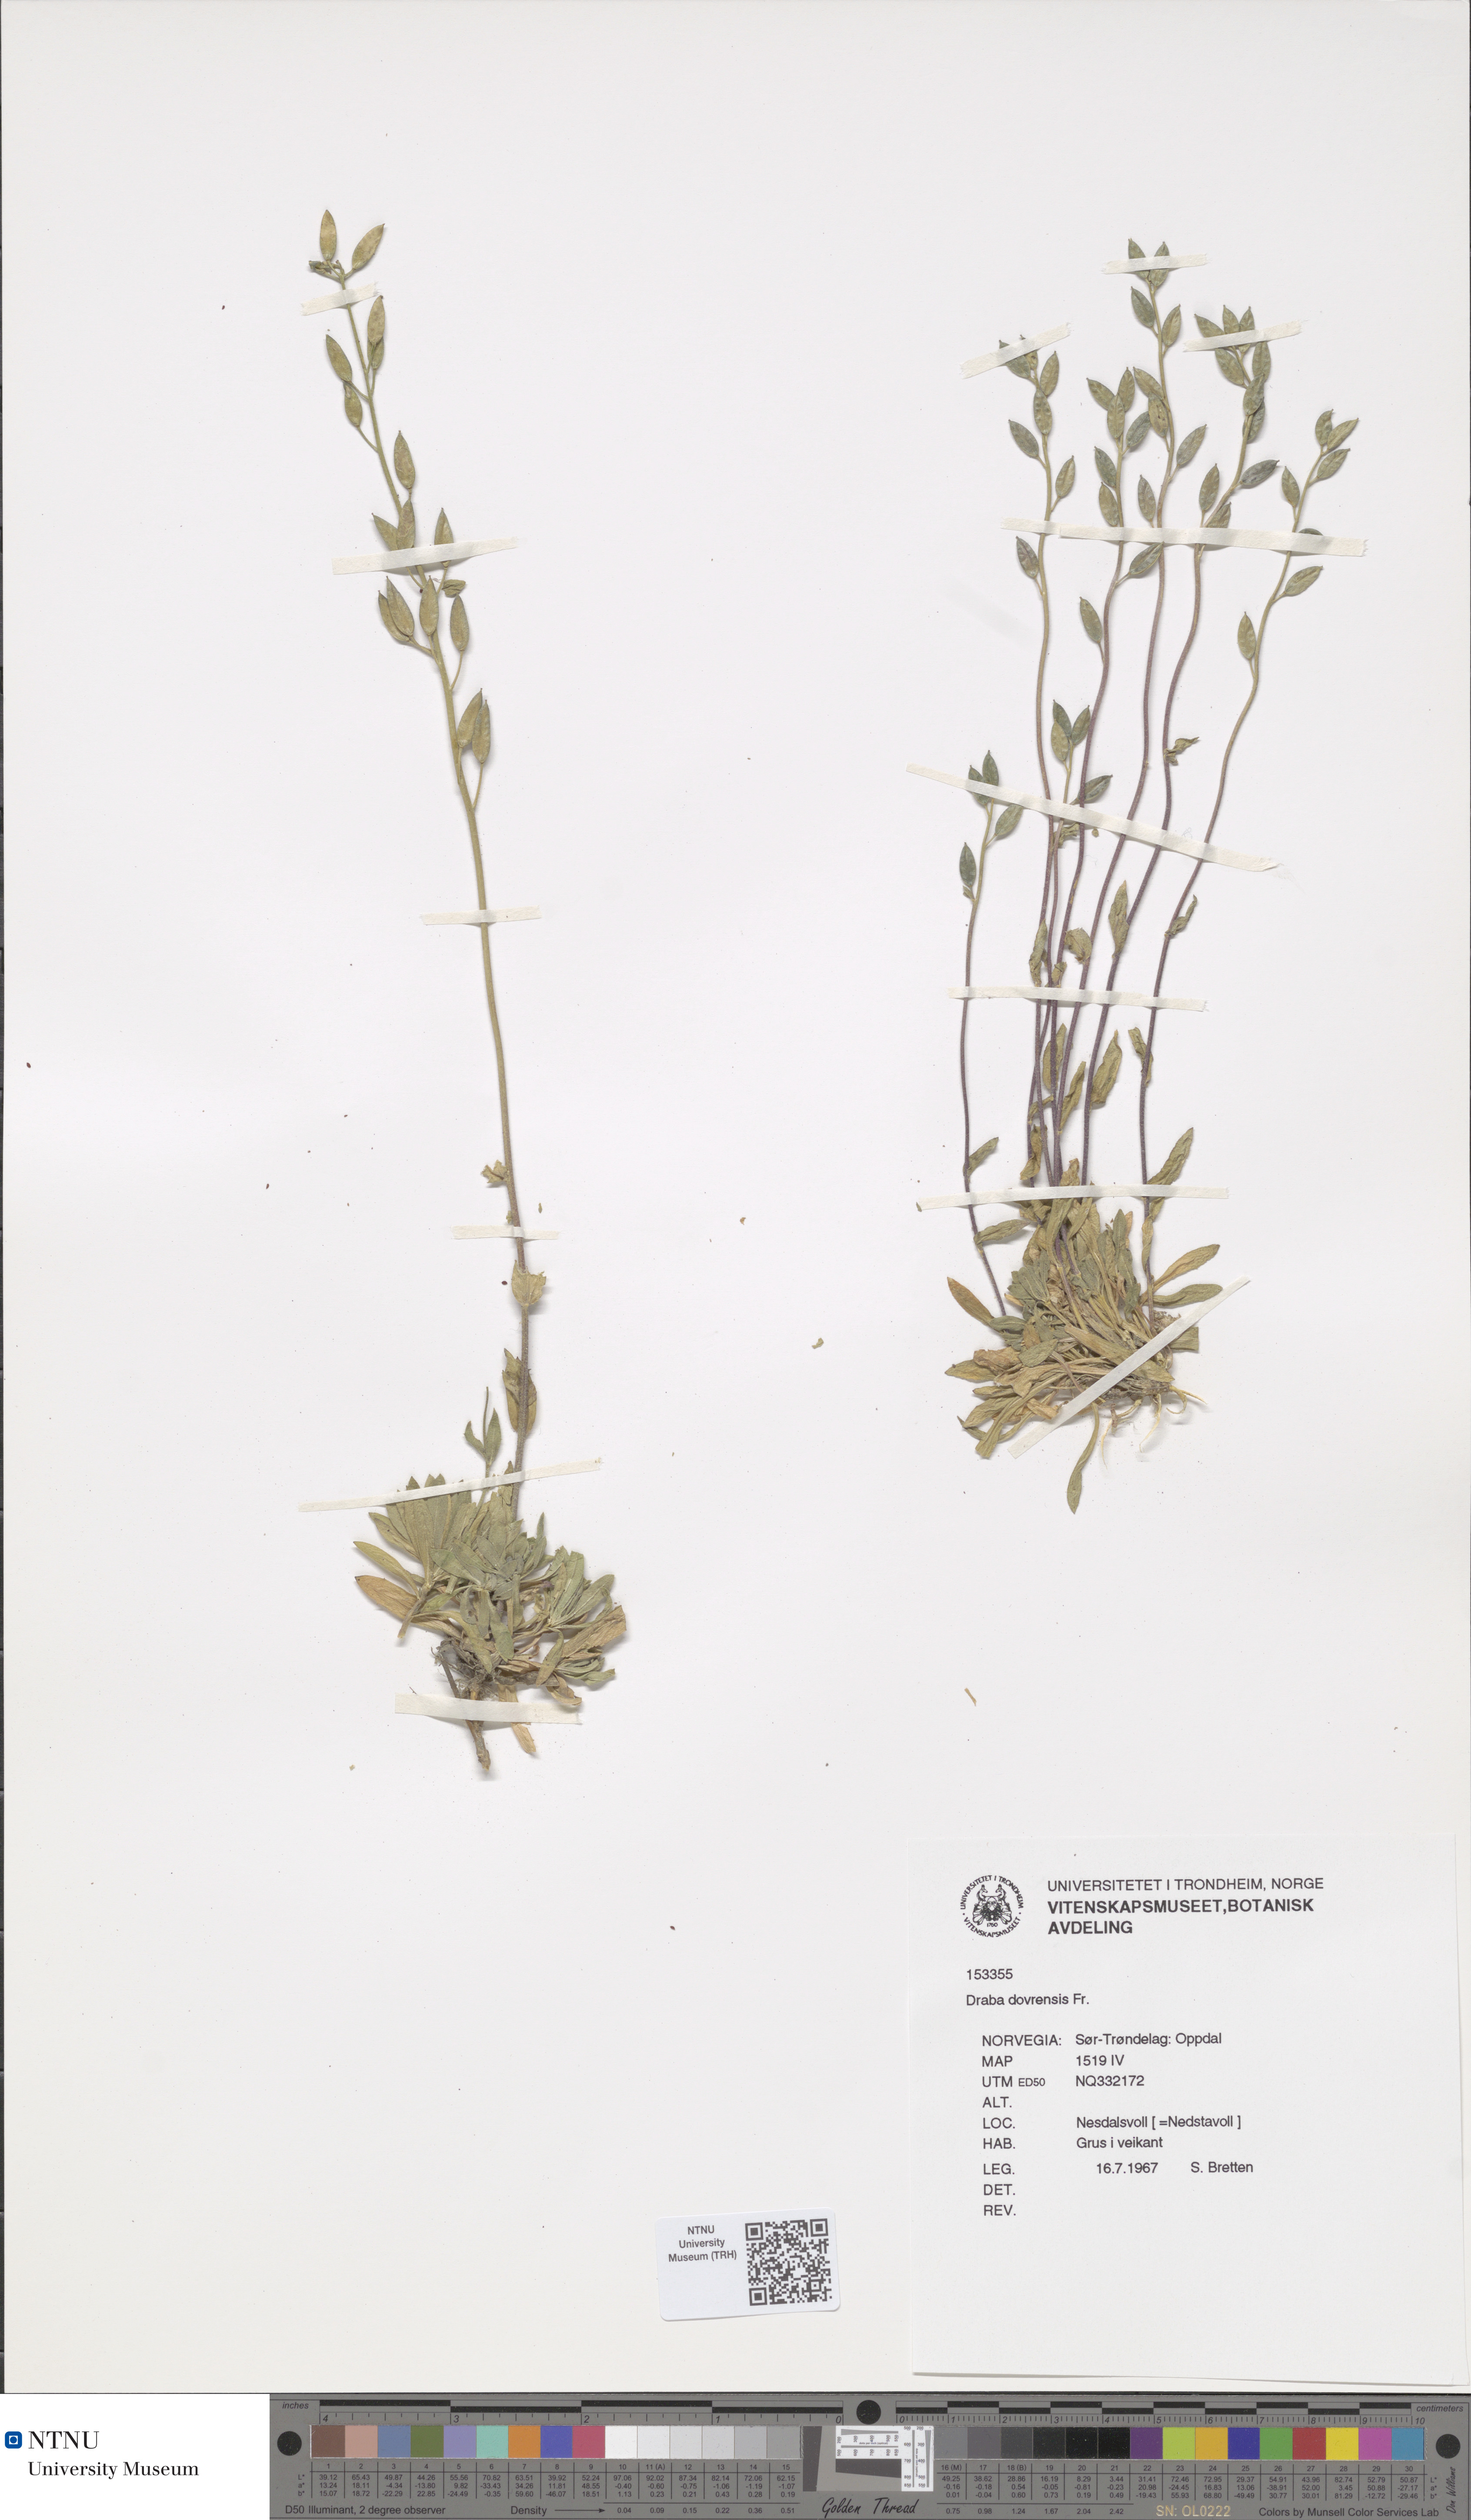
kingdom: Plantae
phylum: Tracheophyta
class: Magnoliopsida
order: Brassicales
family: Brassicaceae
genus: Draba
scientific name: Draba glabella
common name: Glaucous draba
